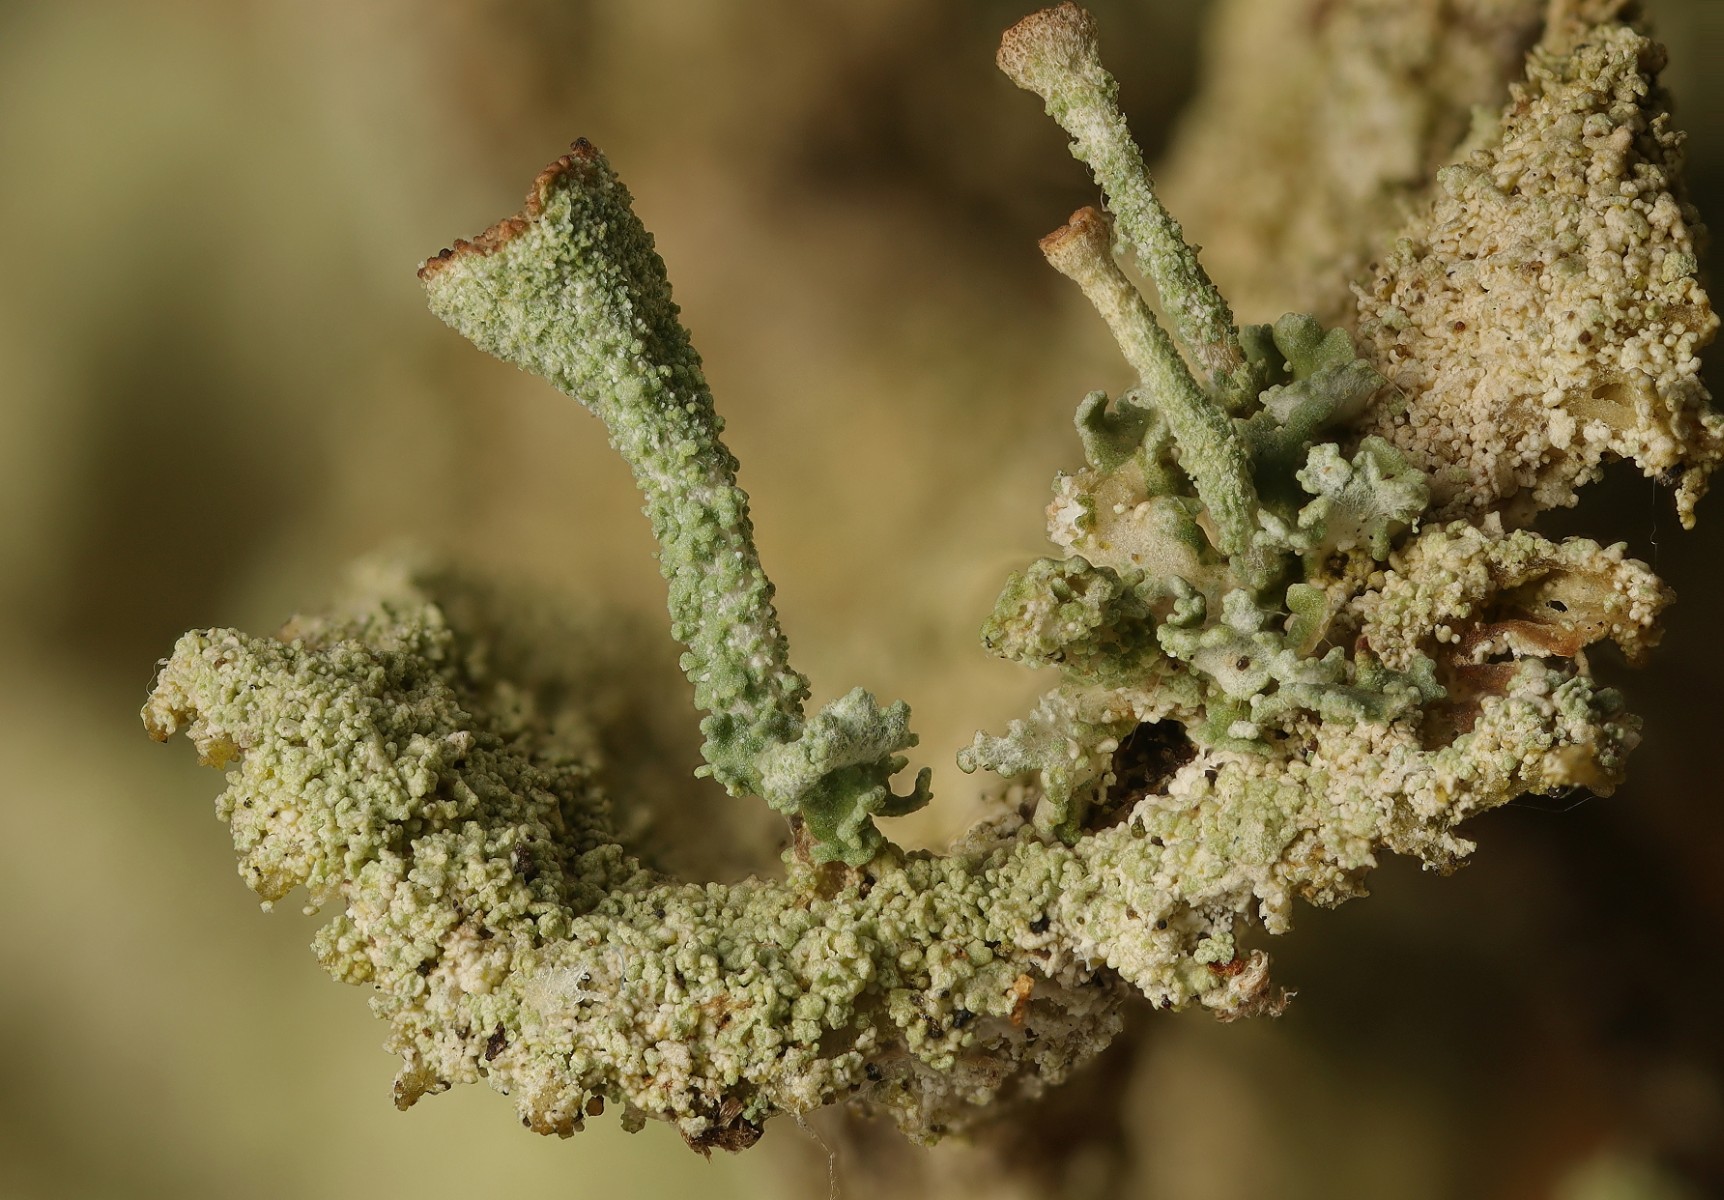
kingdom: Fungi
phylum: Ascomycota
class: Lecanoromycetes
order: Lecanorales
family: Cladoniaceae
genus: Cladonia
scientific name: Cladonia
